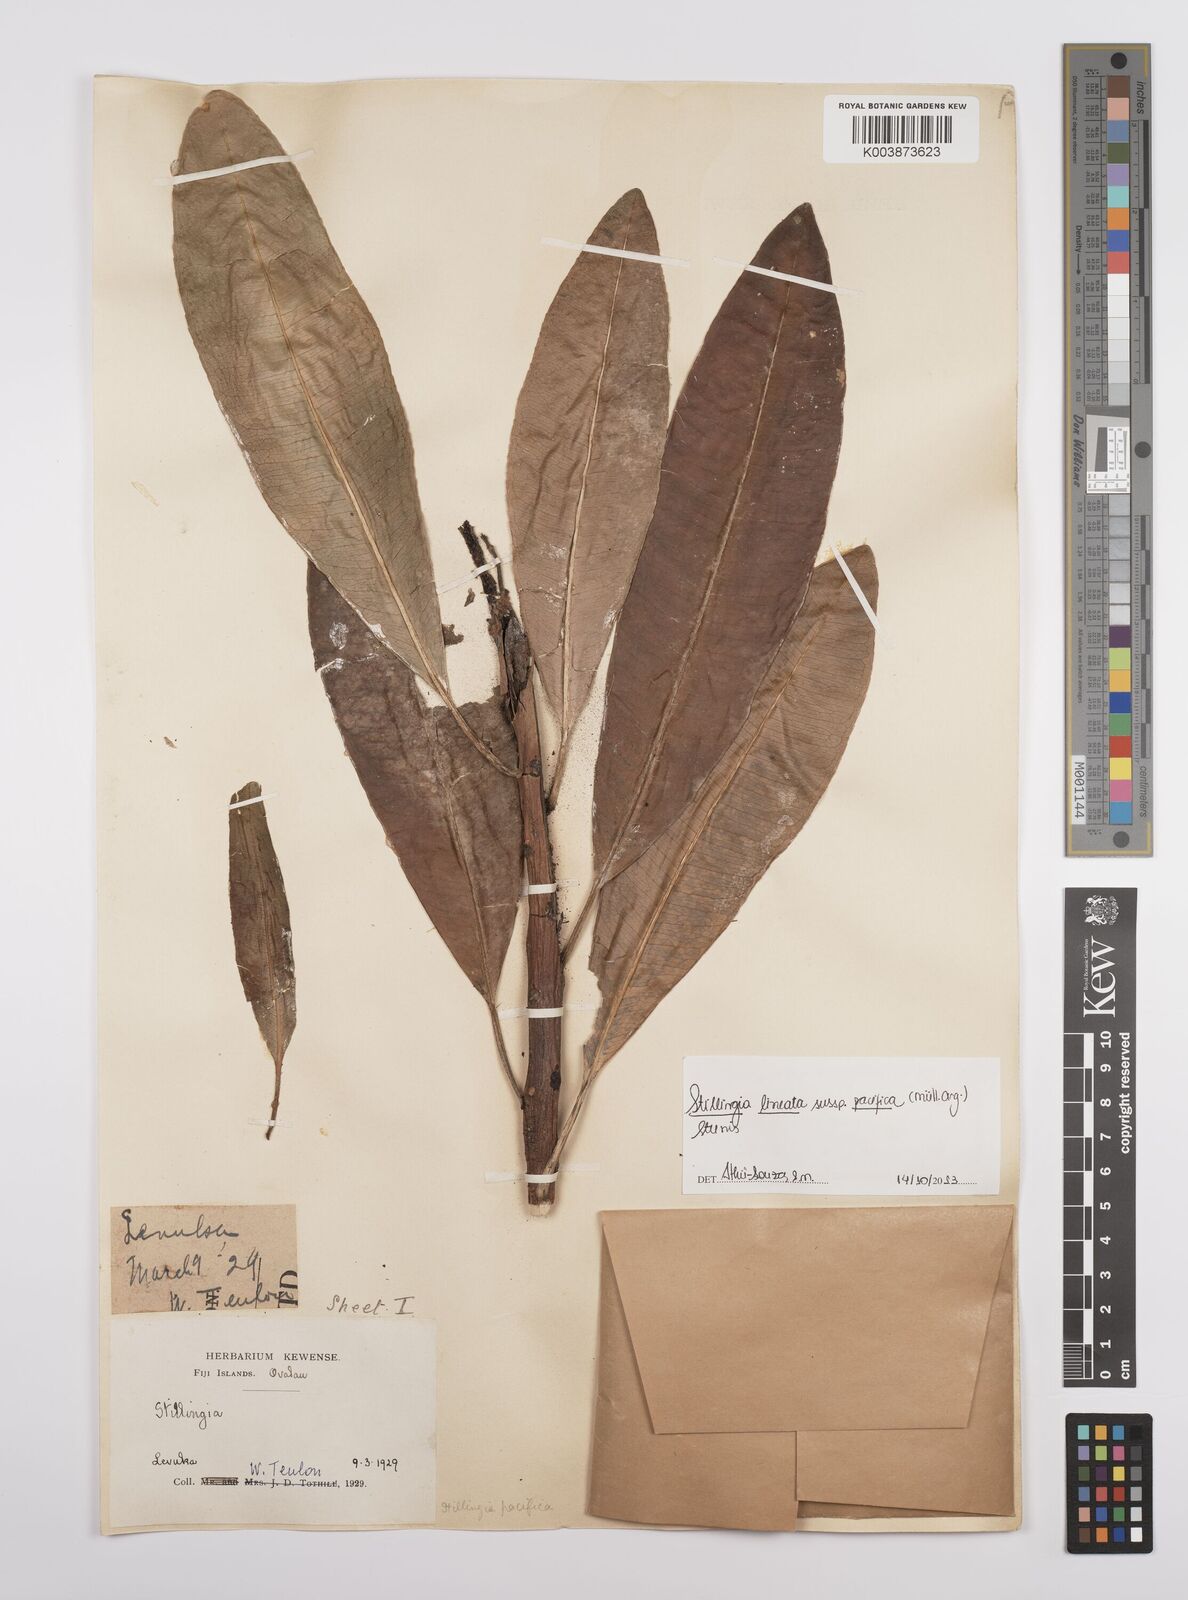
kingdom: Plantae
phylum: Tracheophyta
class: Magnoliopsida
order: Malpighiales
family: Euphorbiaceae
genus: Stillingia
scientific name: Stillingia lineata
